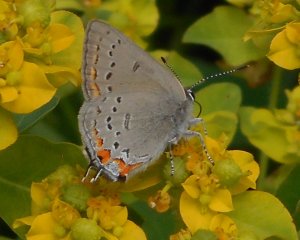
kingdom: Animalia
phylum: Arthropoda
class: Insecta
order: Lepidoptera
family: Lycaenidae
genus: Strymon
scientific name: Strymon acadica
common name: California Hairstreak
